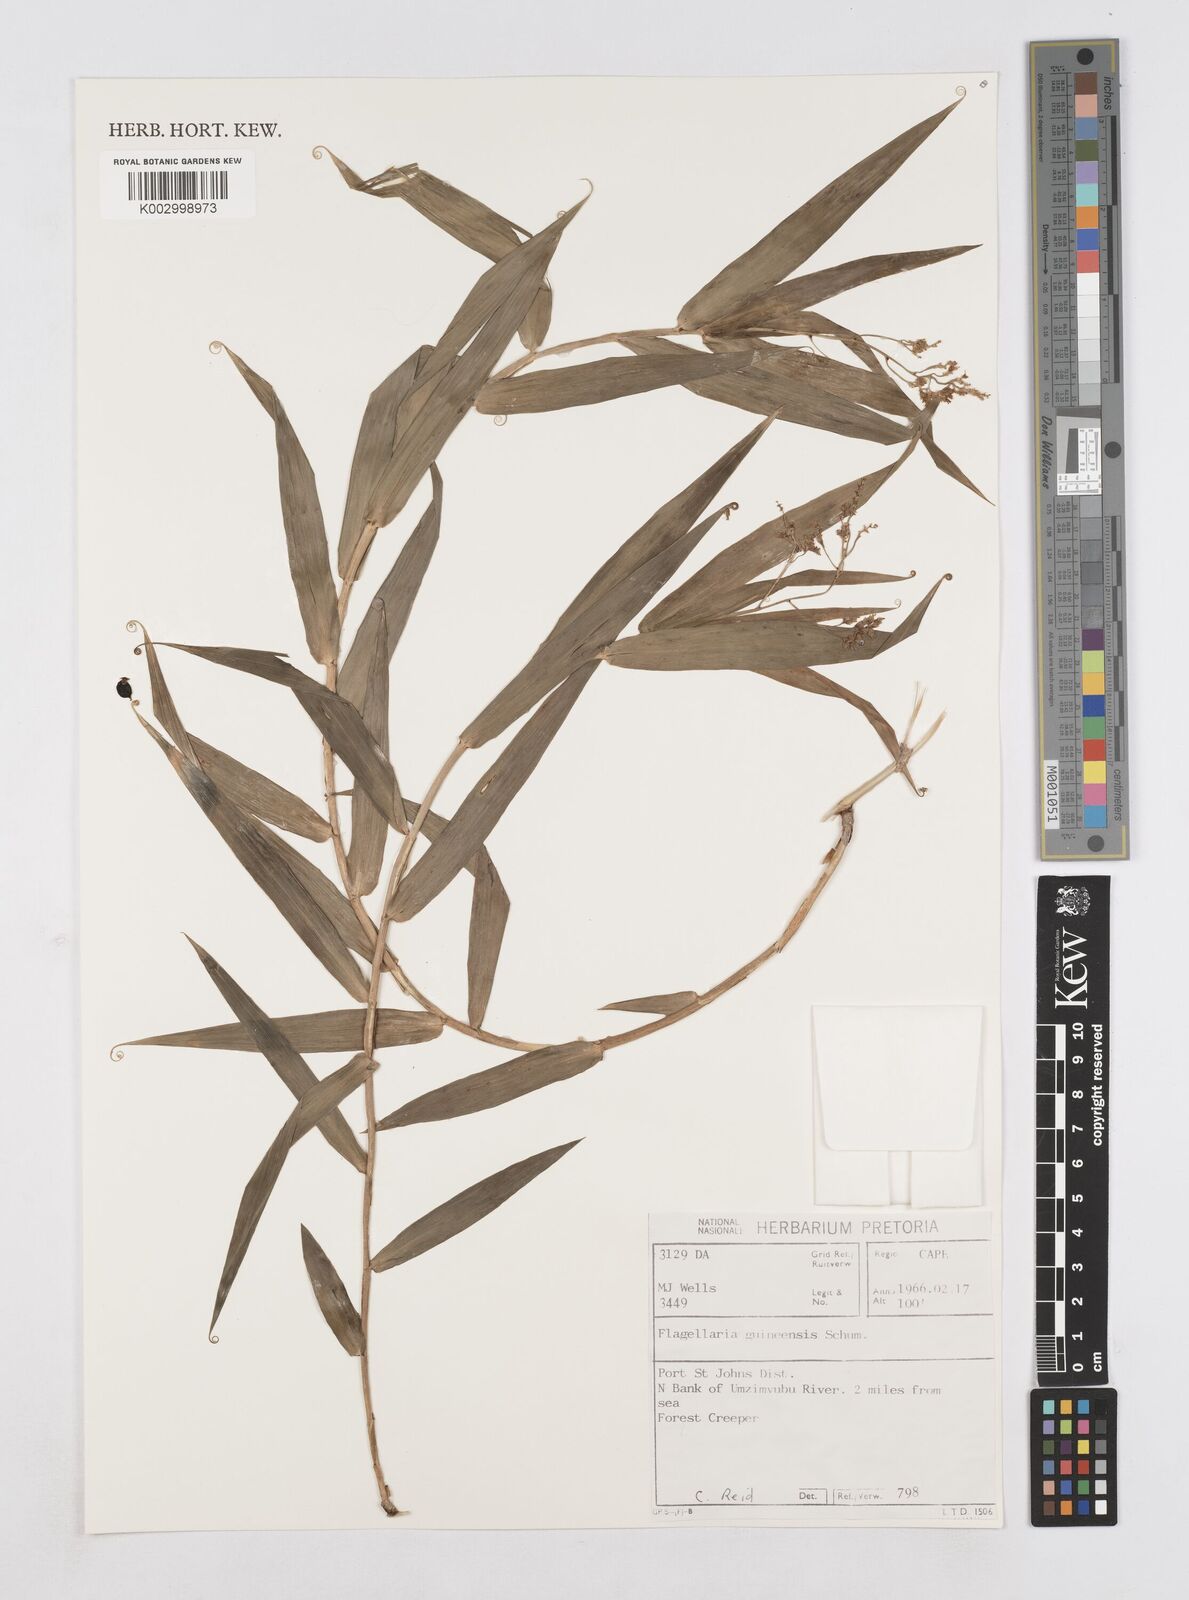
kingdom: Plantae
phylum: Tracheophyta
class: Liliopsida
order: Poales
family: Flagellariaceae
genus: Flagellaria
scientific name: Flagellaria guineensis
